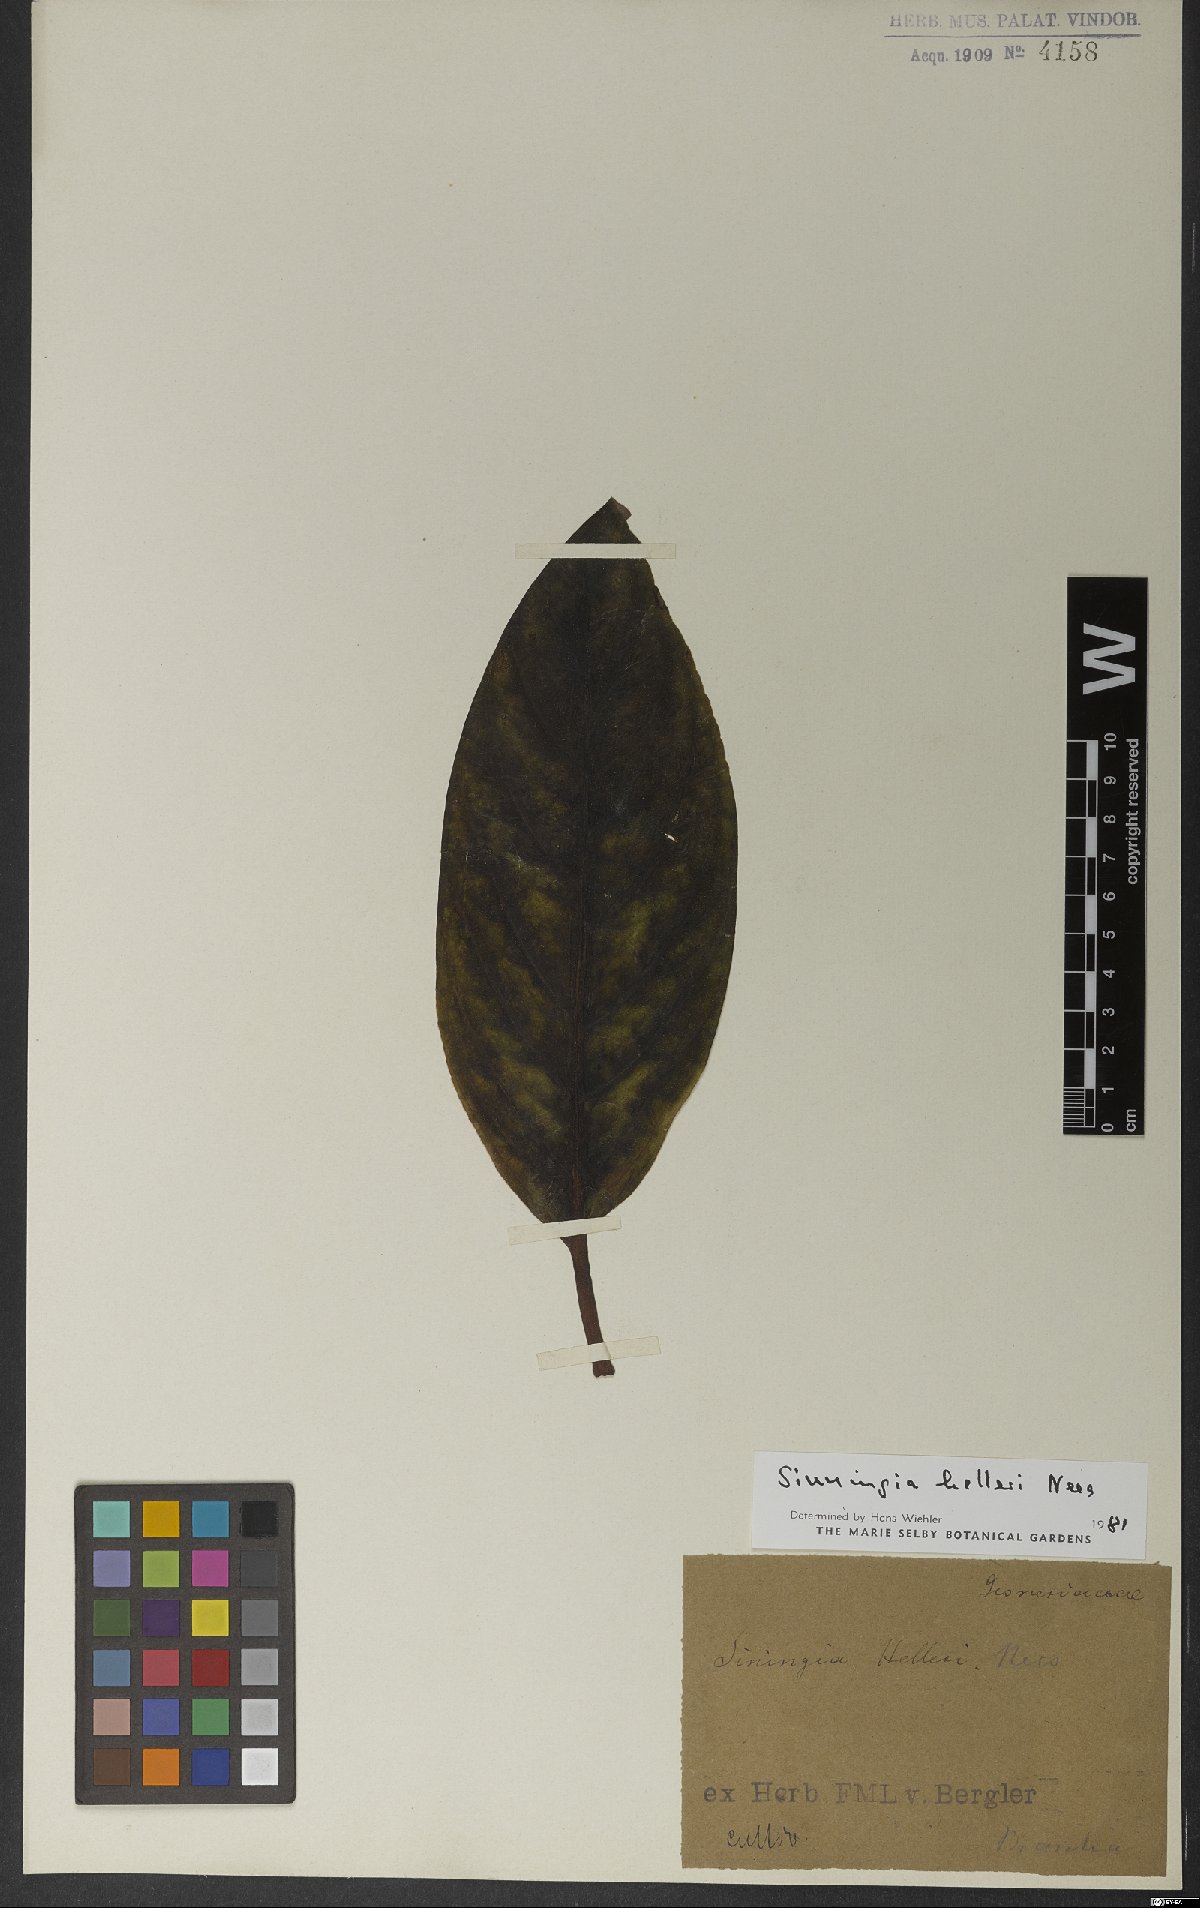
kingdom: Plantae
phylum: Tracheophyta
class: Magnoliopsida
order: Lamiales
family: Gesneriaceae
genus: Sinningia
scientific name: Sinningia helleri
